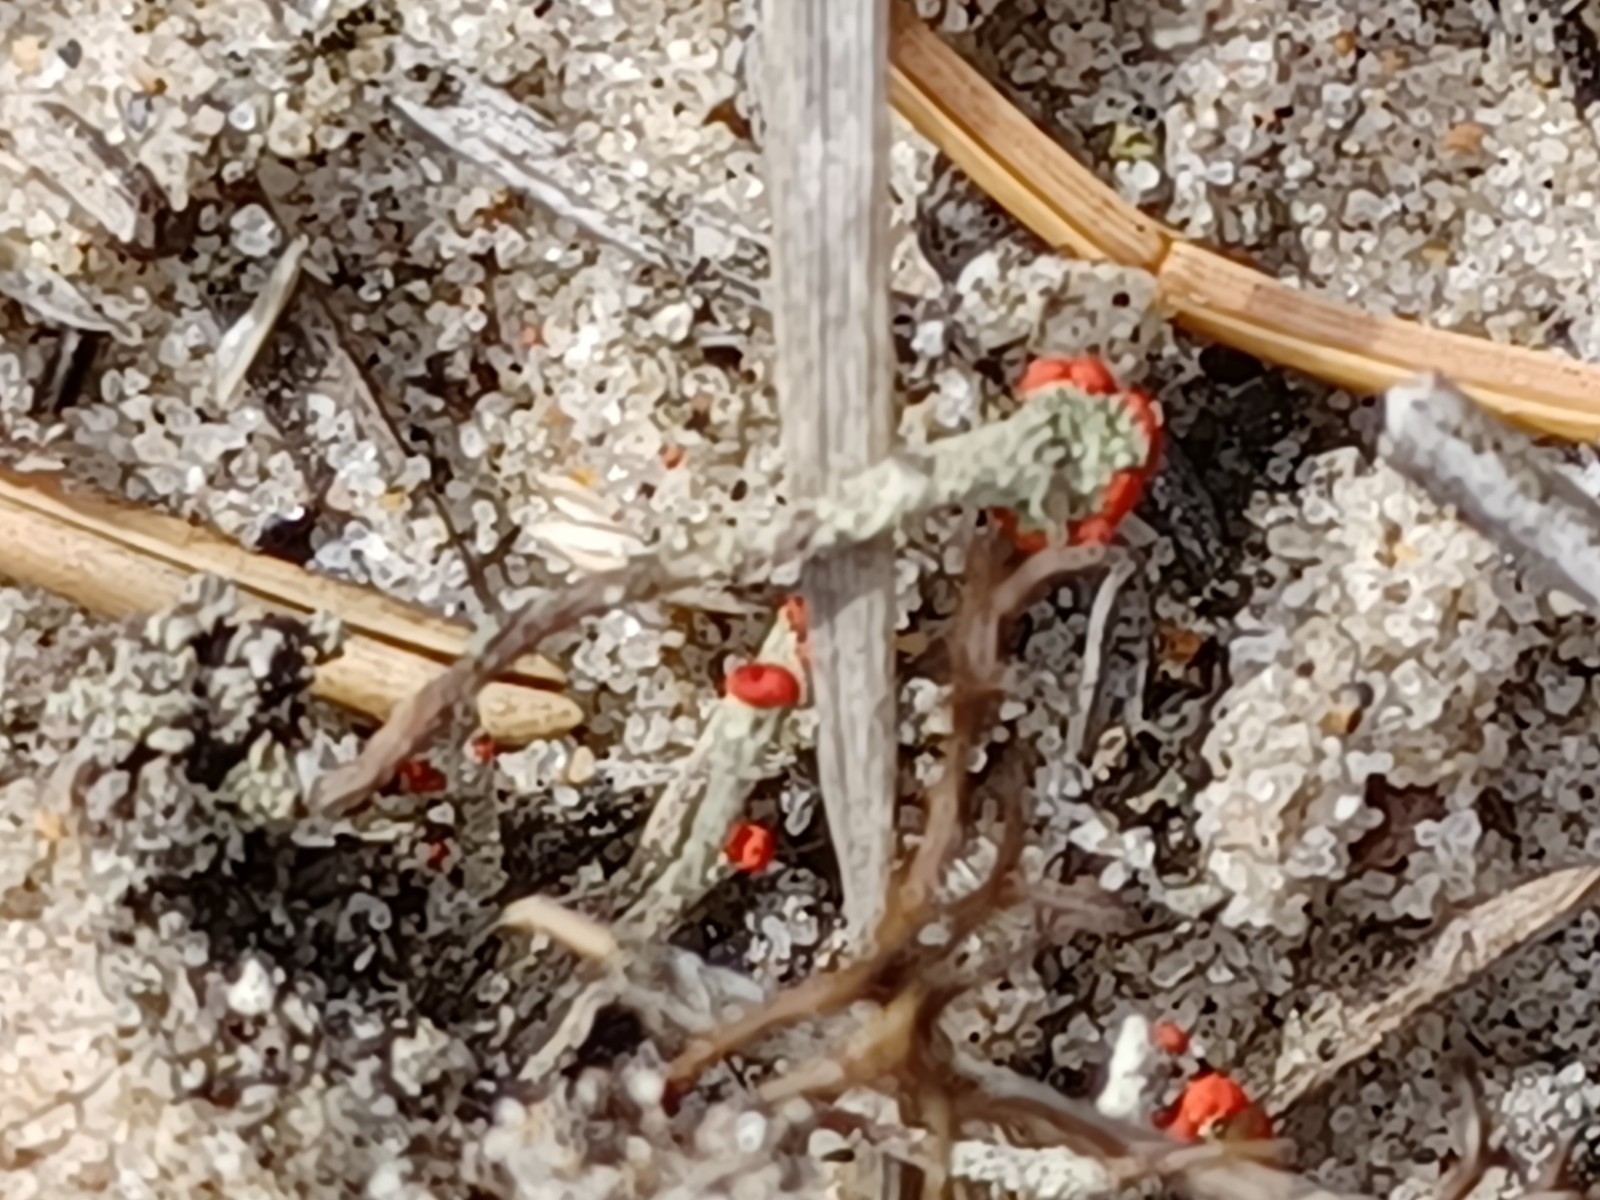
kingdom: Fungi
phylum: Ascomycota
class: Lecanoromycetes
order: Lecanorales
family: Cladoniaceae
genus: Cladonia
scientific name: Cladonia floerkeana
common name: lakrød bægerlav
